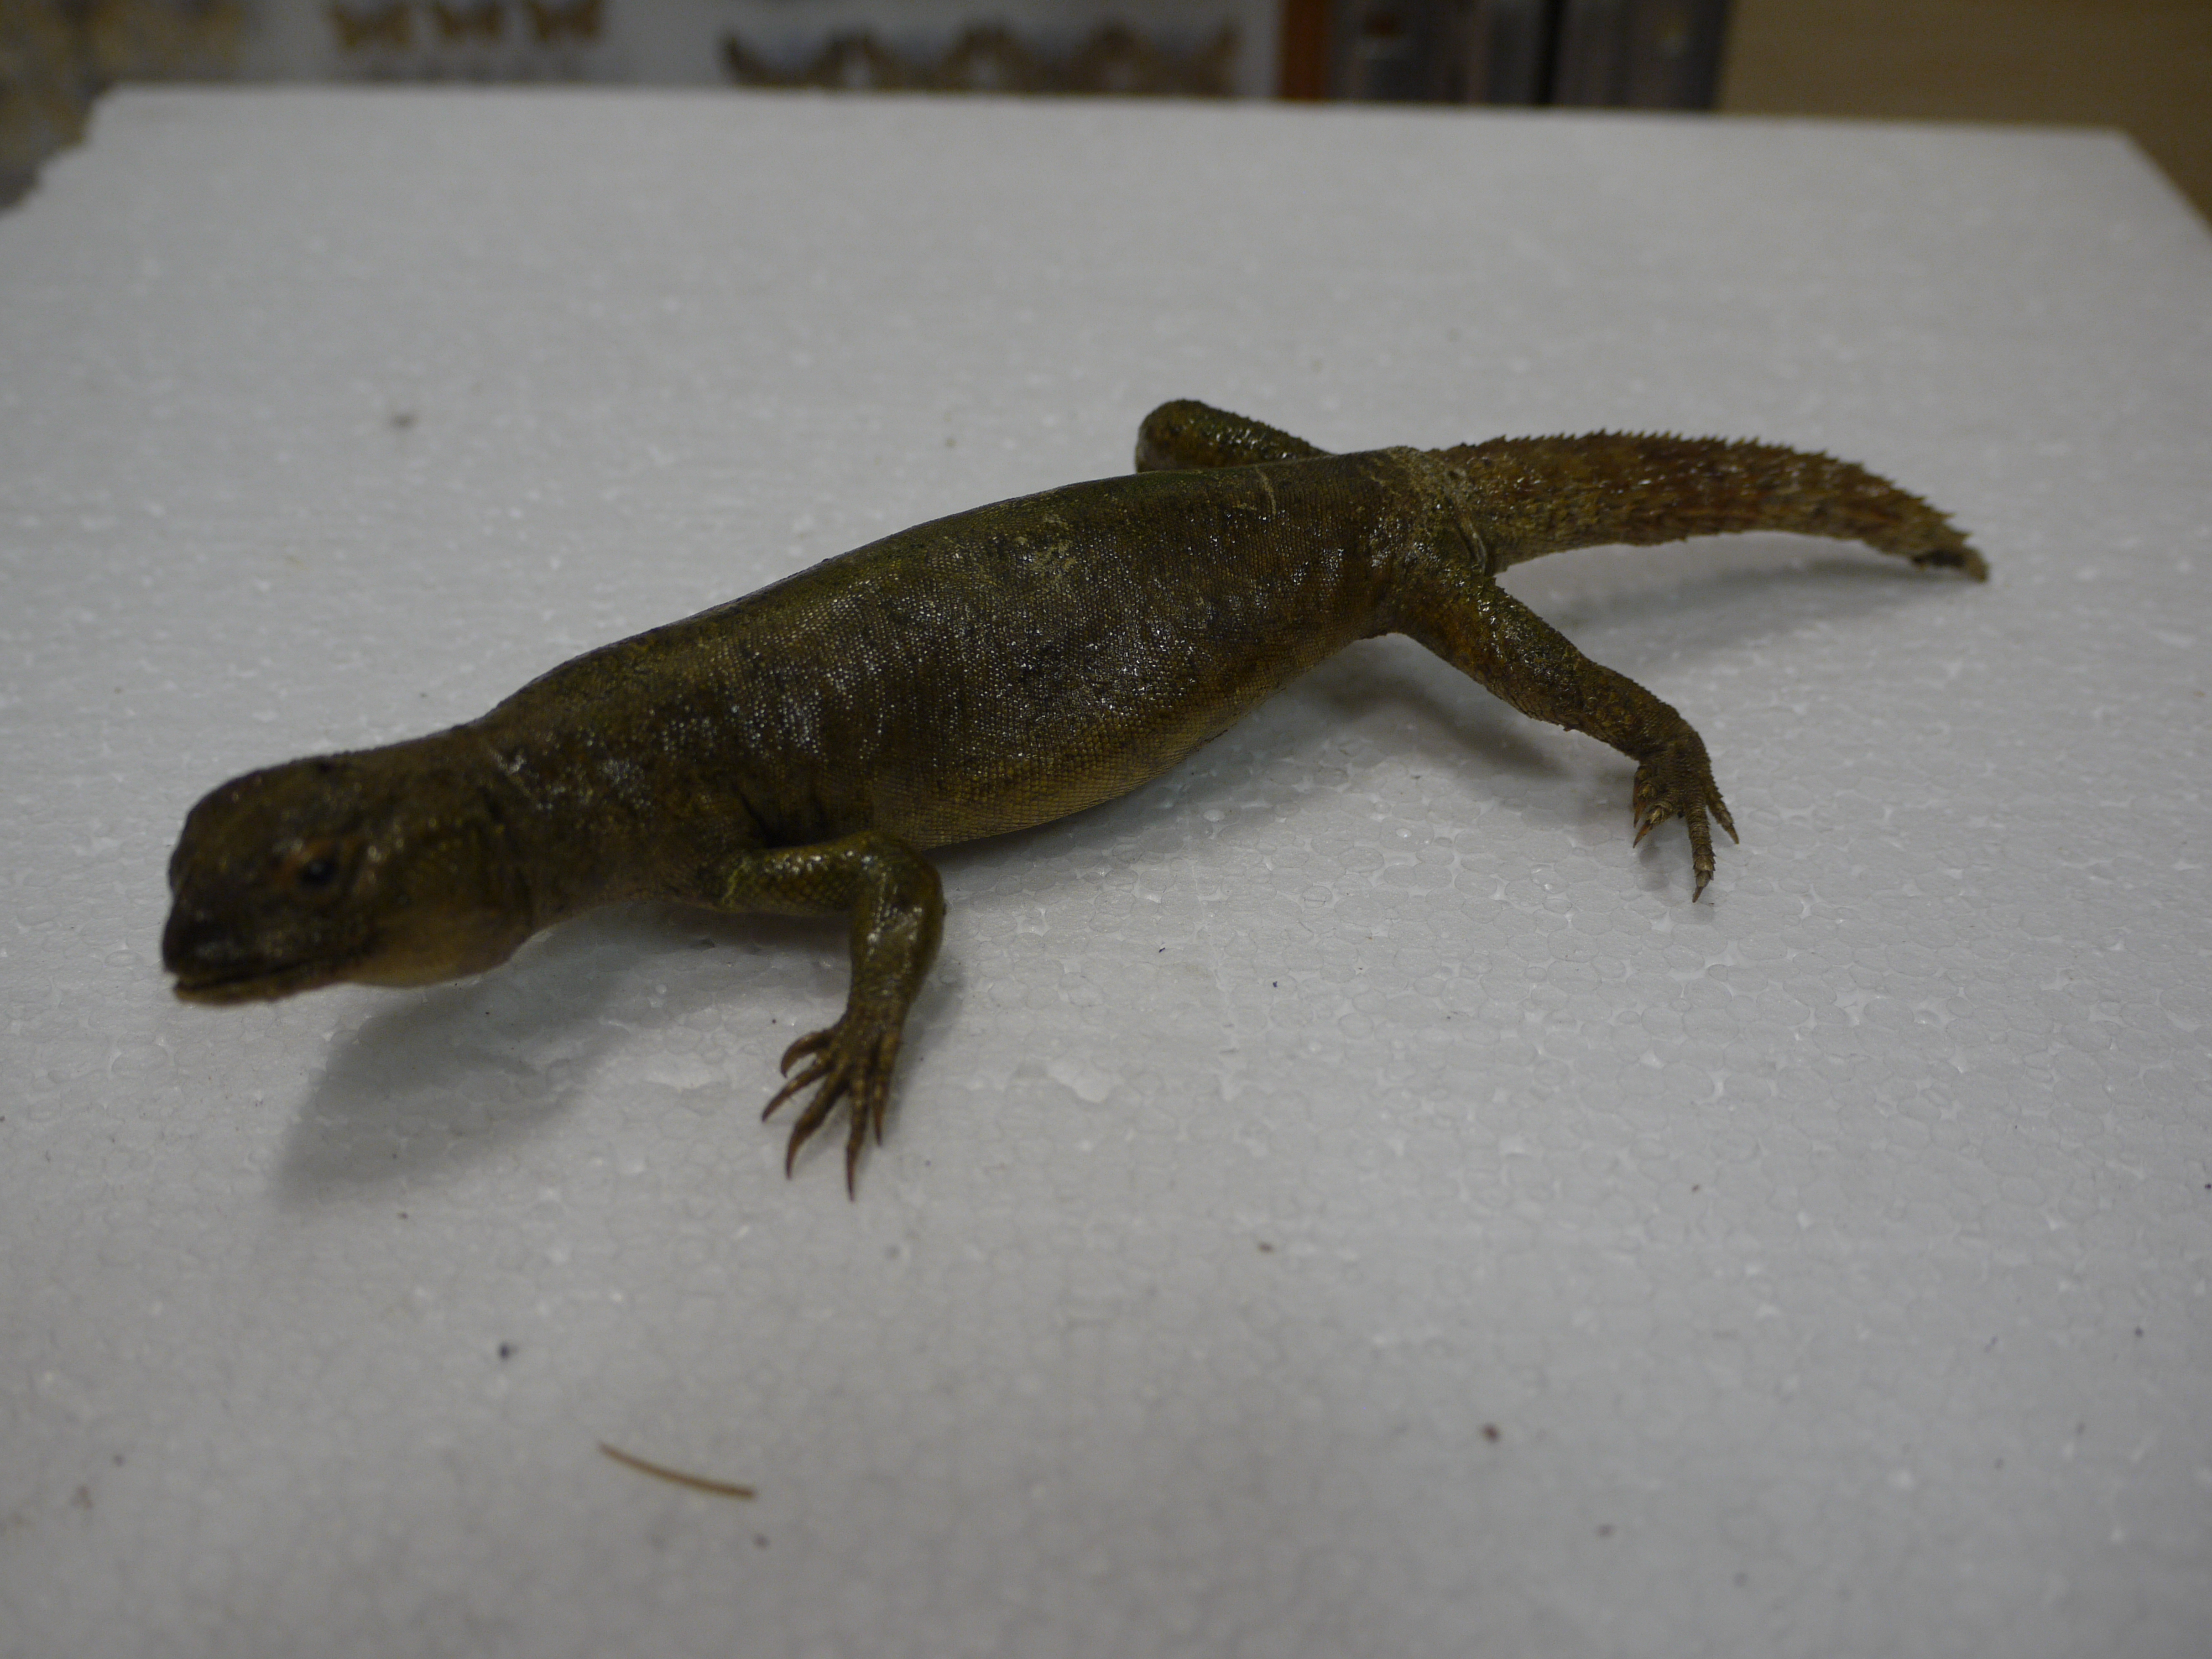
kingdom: Animalia
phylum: Chordata
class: Squamata
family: Agamidae
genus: Uromastyx
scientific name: Uromastyx acanthinura
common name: Dabba mastigure
